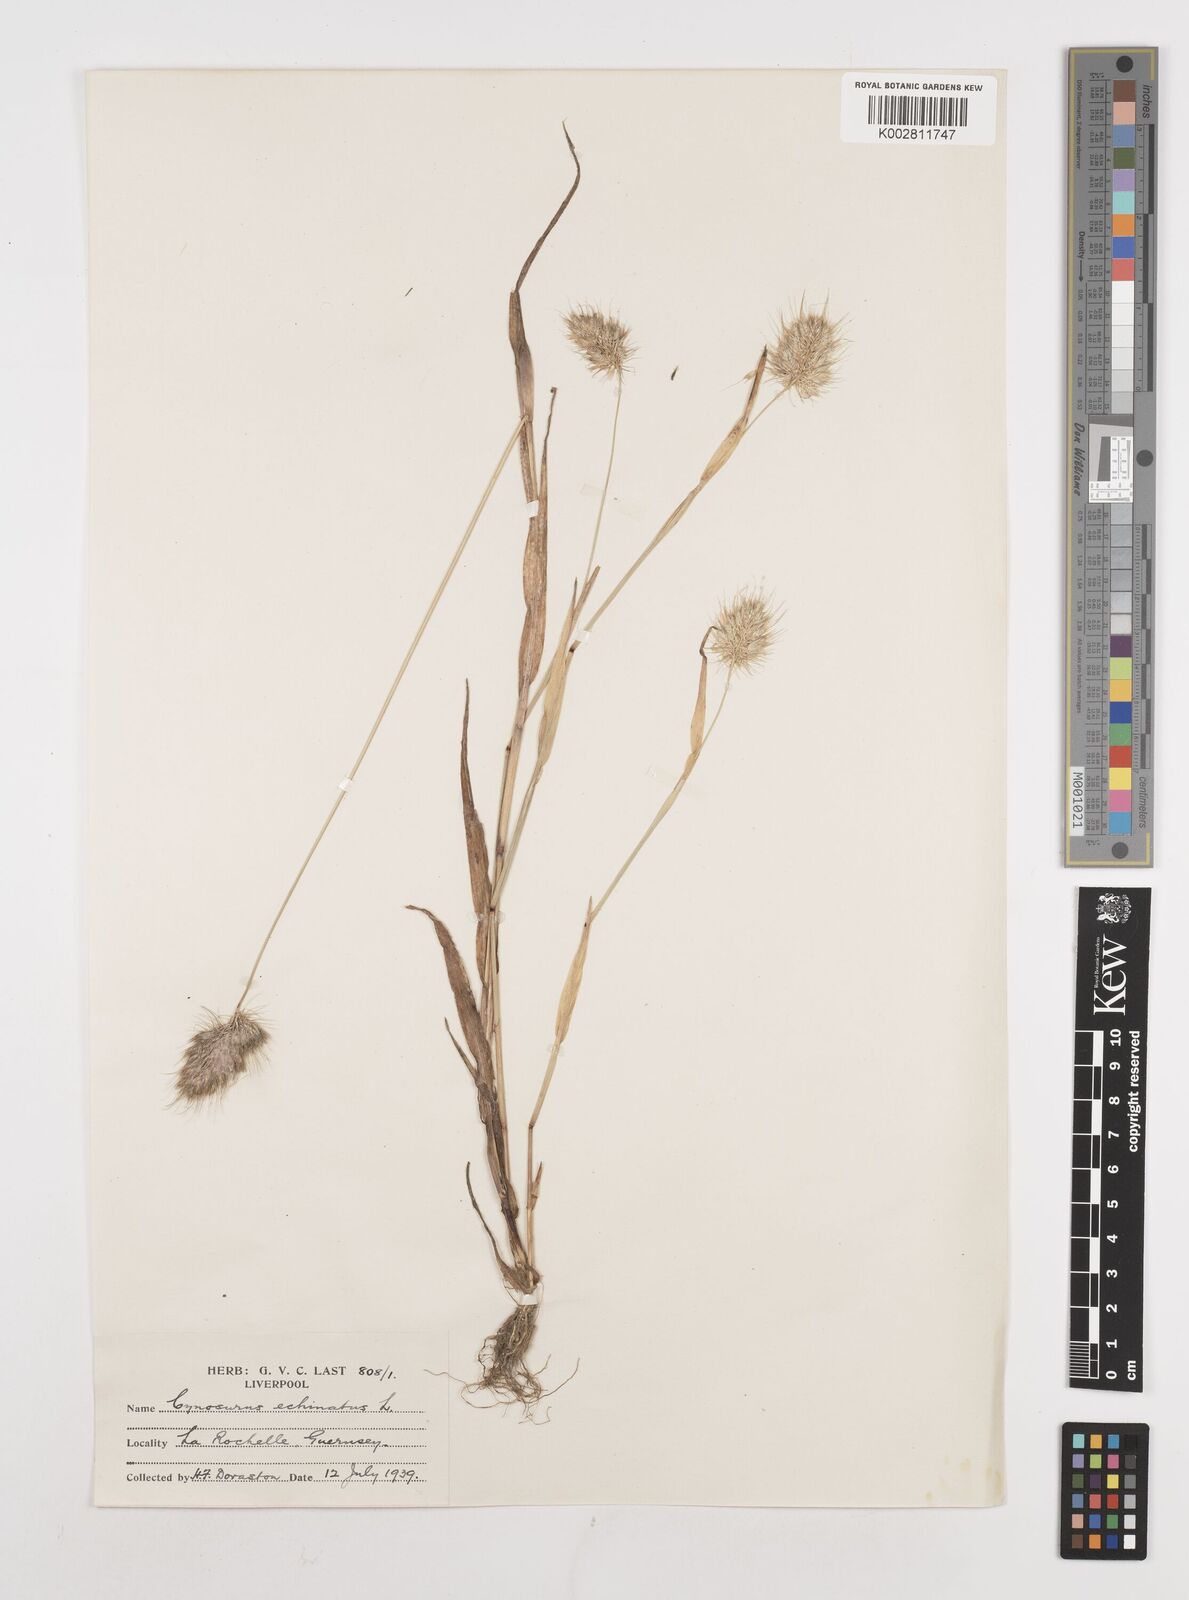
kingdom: Plantae
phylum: Tracheophyta
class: Liliopsida
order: Poales
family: Poaceae
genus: Cynosurus
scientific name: Cynosurus echinatus
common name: Rough dog's-tail
